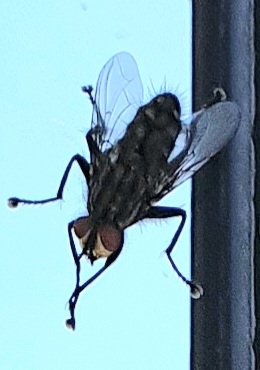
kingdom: Animalia
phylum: Arthropoda
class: Insecta
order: Diptera
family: Sarcophagidae
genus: Sarcophaga
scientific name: Sarcophaga
